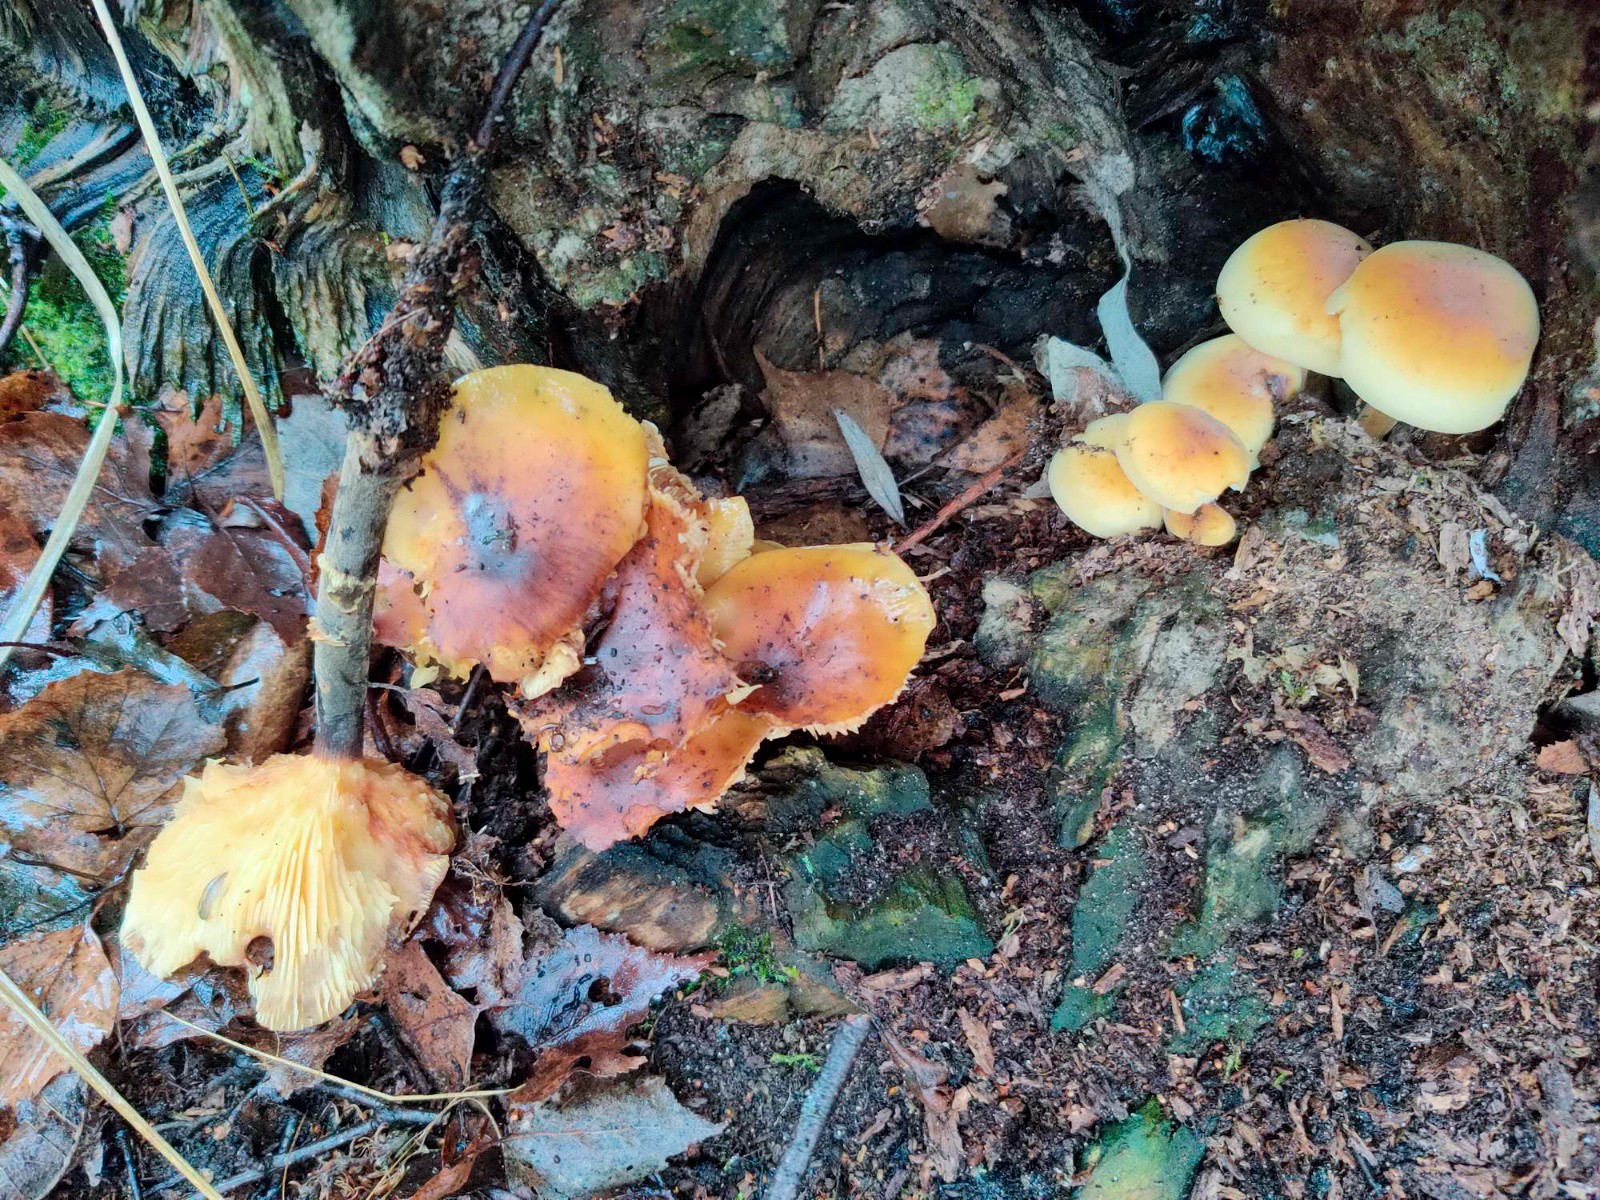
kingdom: Fungi
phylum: Basidiomycota
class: Agaricomycetes
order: Agaricales
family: Physalacriaceae
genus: Flammulina
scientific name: Flammulina elastica
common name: pile-fløjlsfod
